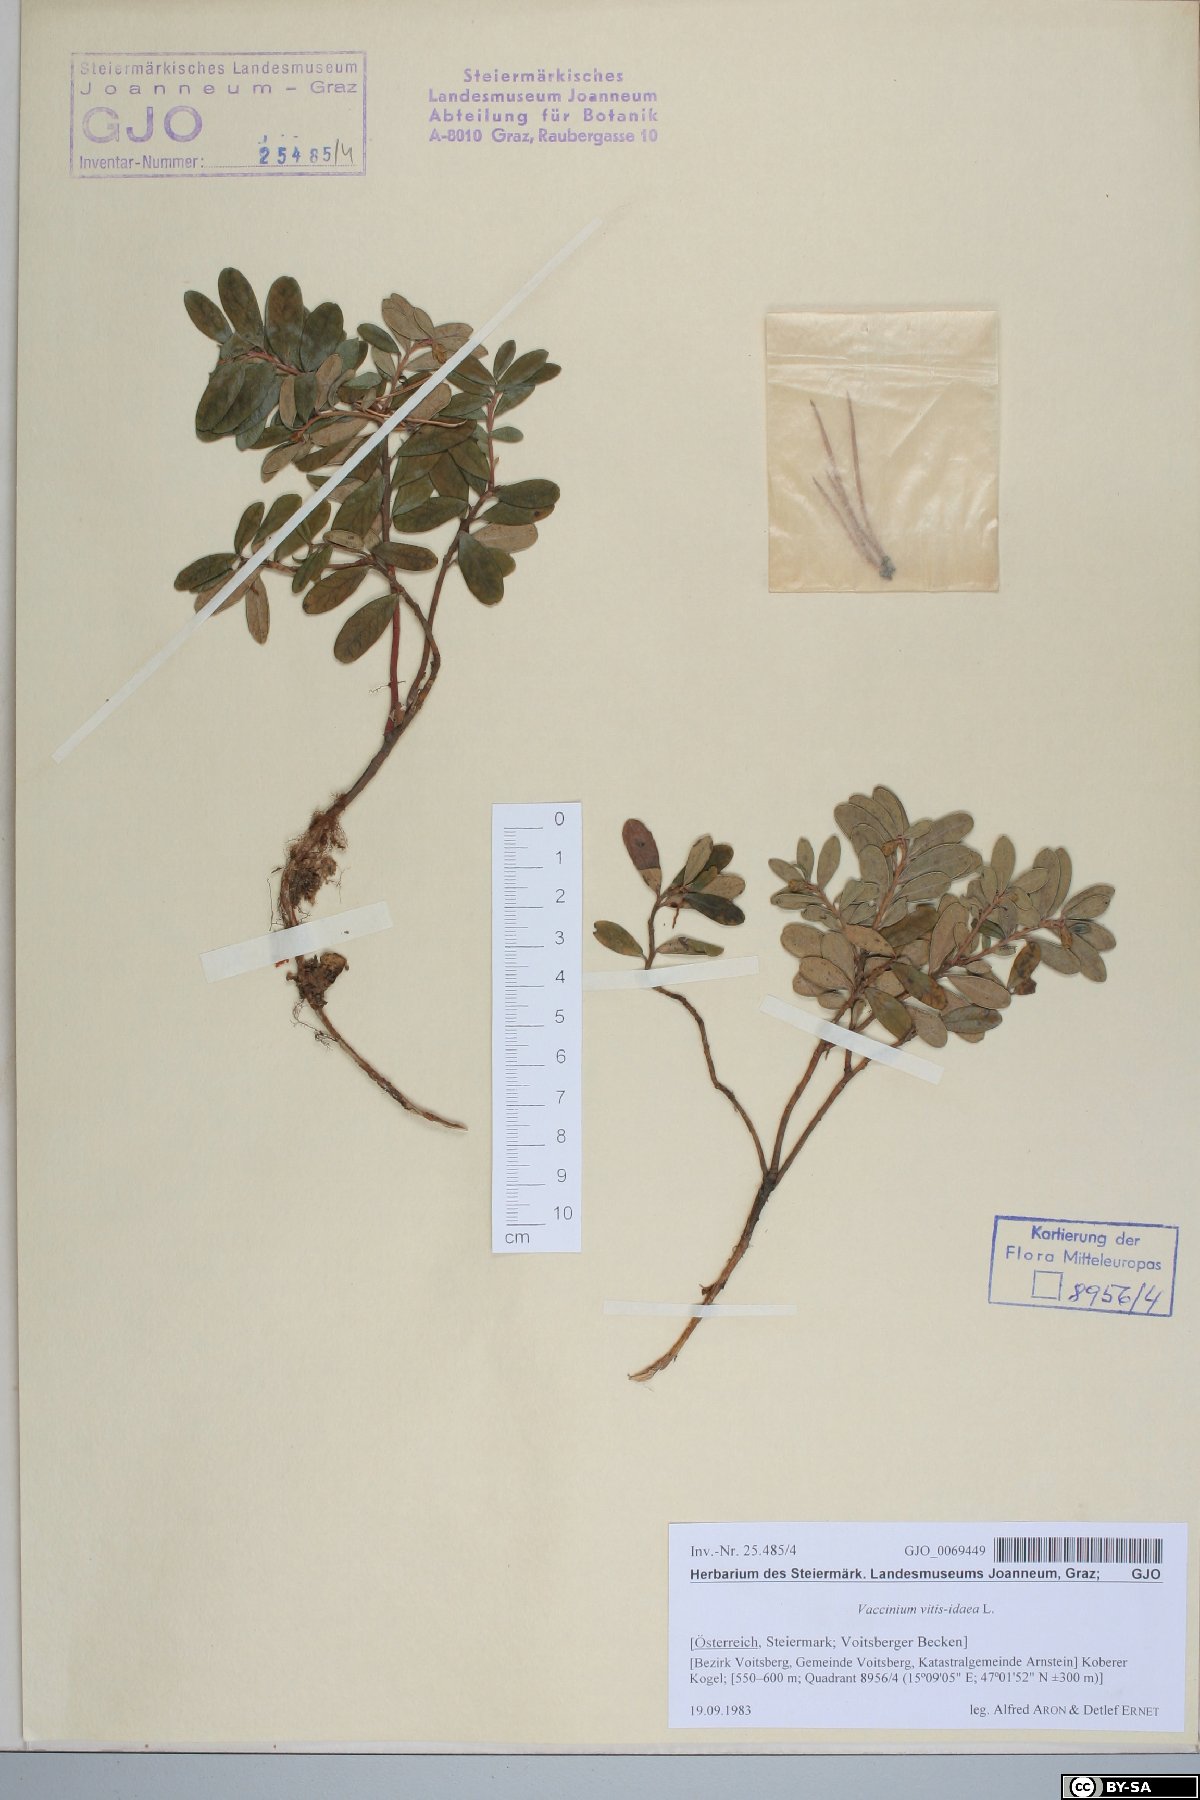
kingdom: Plantae
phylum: Tracheophyta
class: Magnoliopsida
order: Ericales
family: Ericaceae
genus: Vaccinium
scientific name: Vaccinium vitis-idaea
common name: Cowberry
